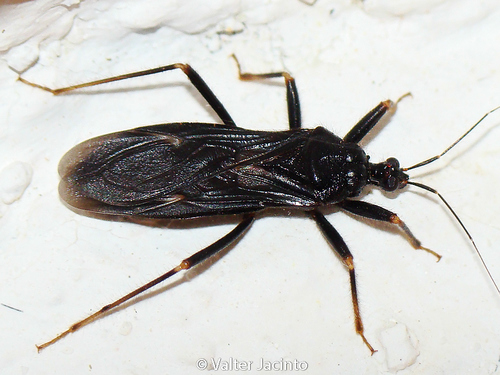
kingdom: Animalia
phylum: Arthropoda
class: Insecta
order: Hemiptera
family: Reduviidae
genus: Reduvius
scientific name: Reduvius personatus
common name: Masked hunter
